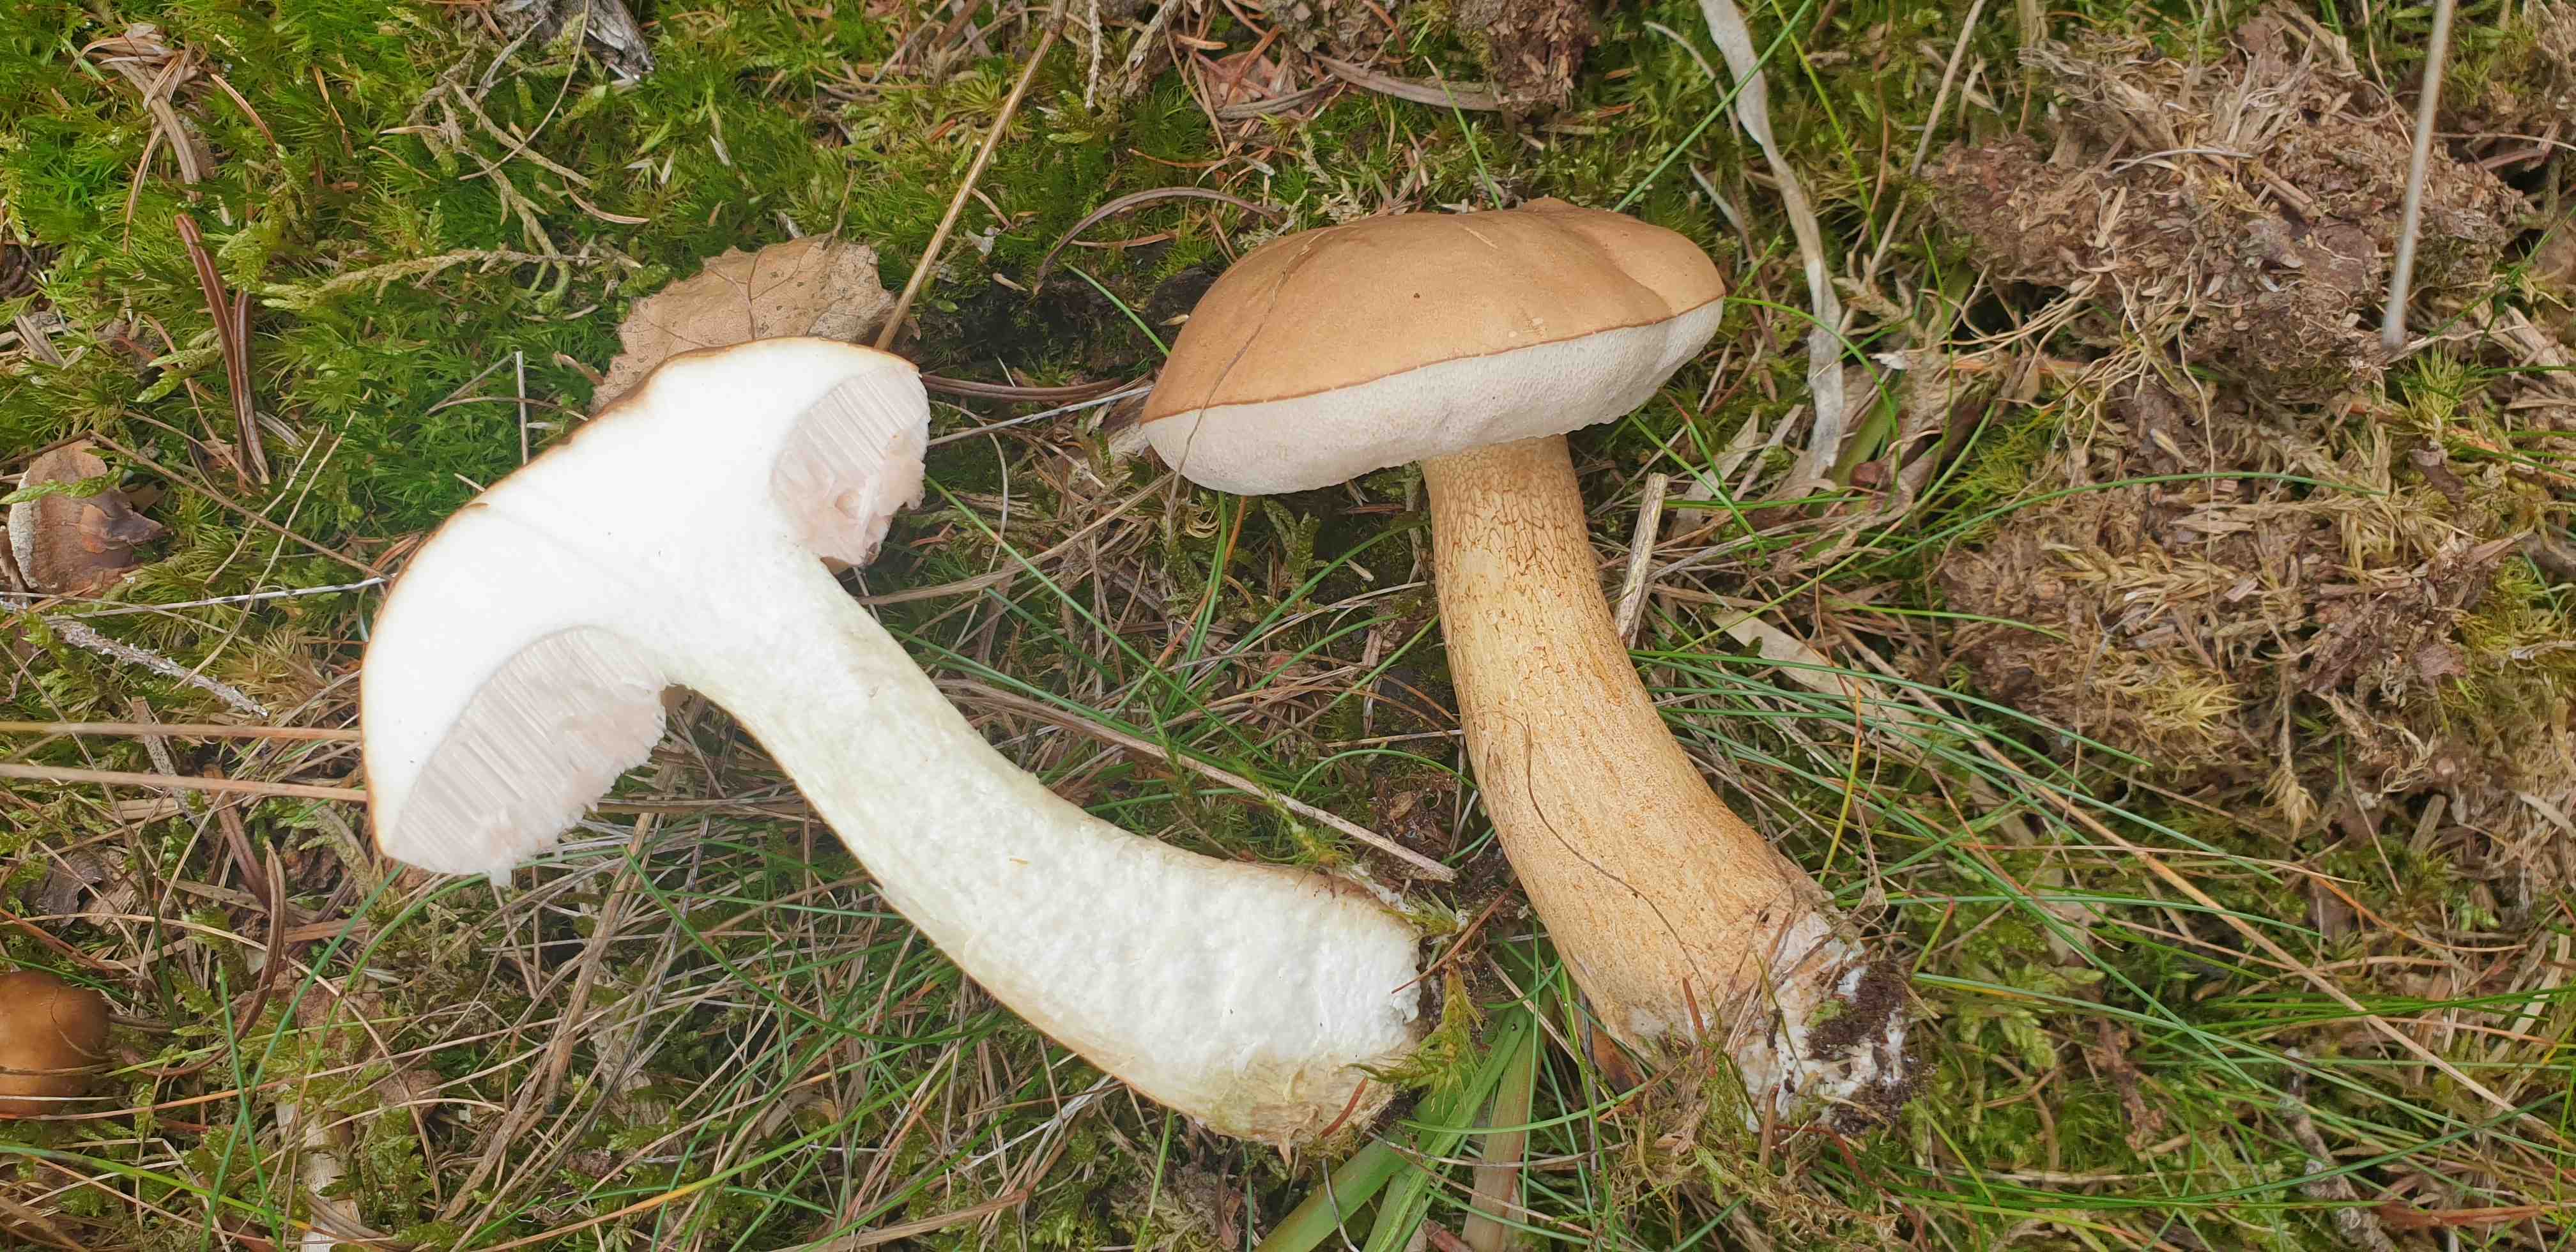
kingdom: Fungi
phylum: Basidiomycota
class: Agaricomycetes
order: Boletales
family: Boletaceae
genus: Tylopilus
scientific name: Tylopilus felleus
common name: galderørhat
